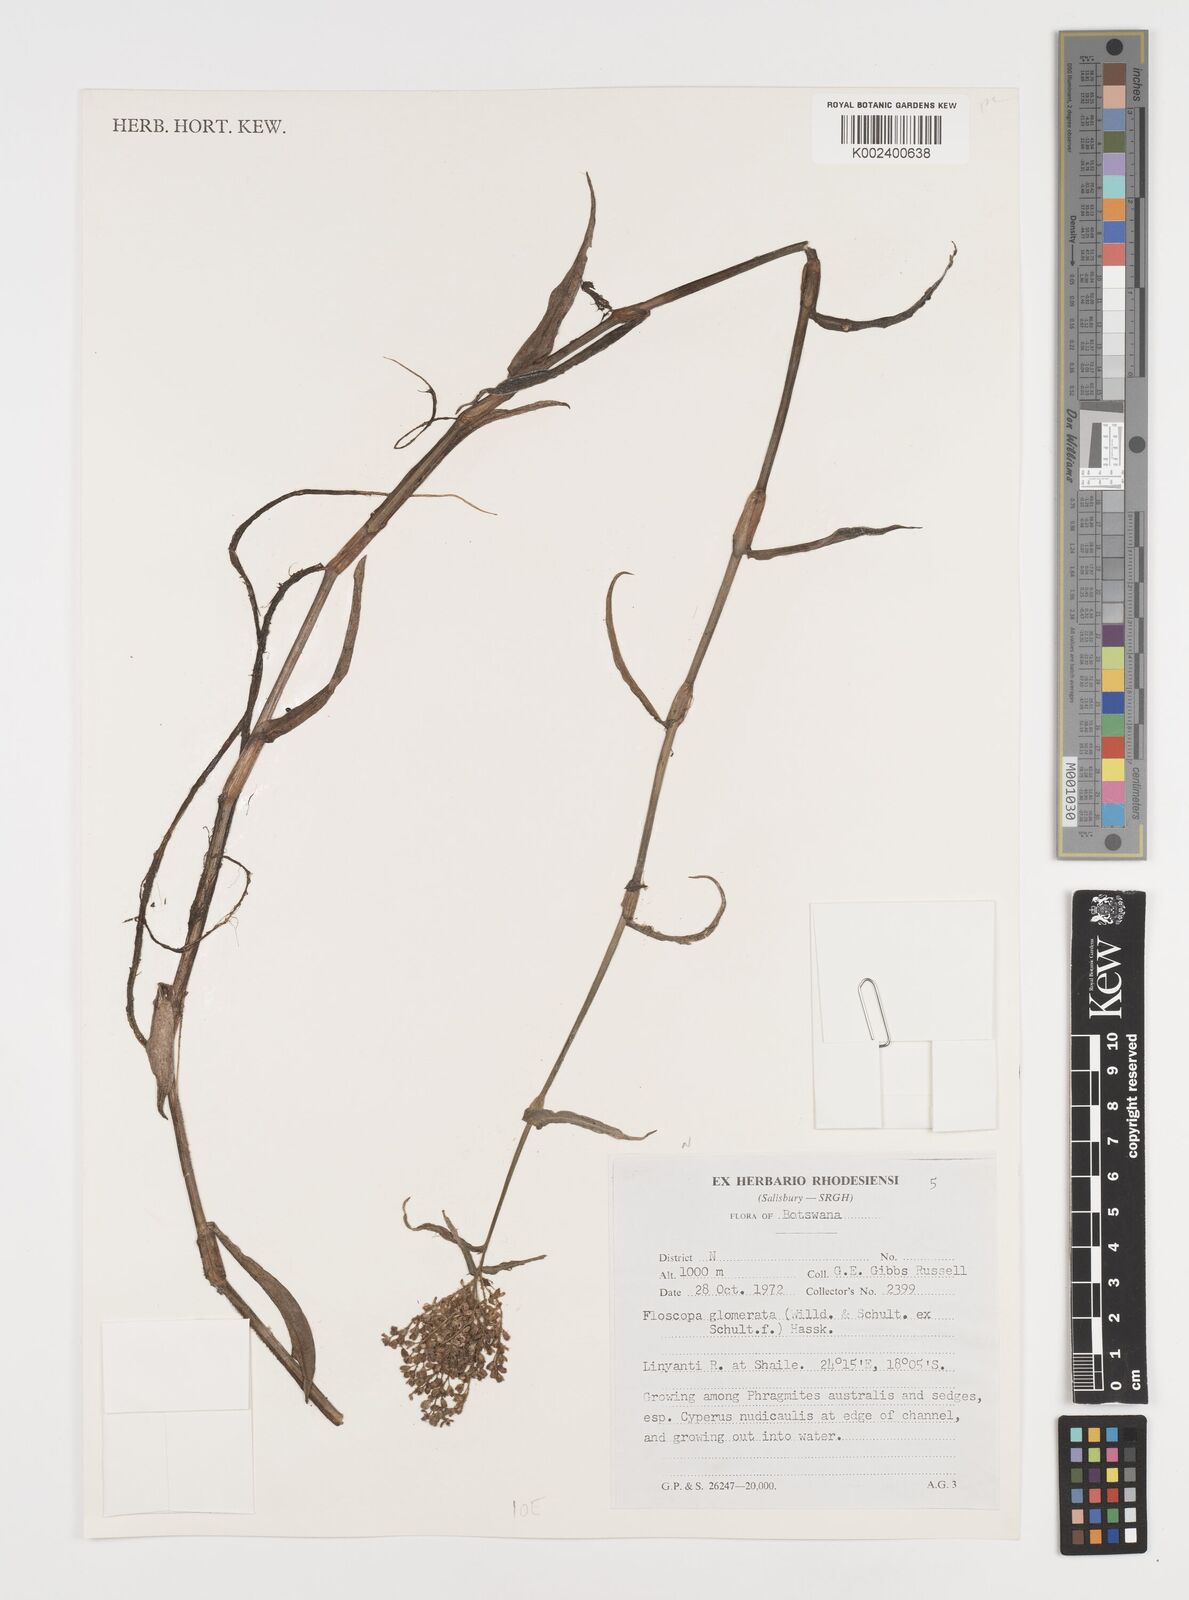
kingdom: Plantae
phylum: Tracheophyta
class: Liliopsida
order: Commelinales
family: Commelinaceae
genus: Floscopa
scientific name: Floscopa glomerata
